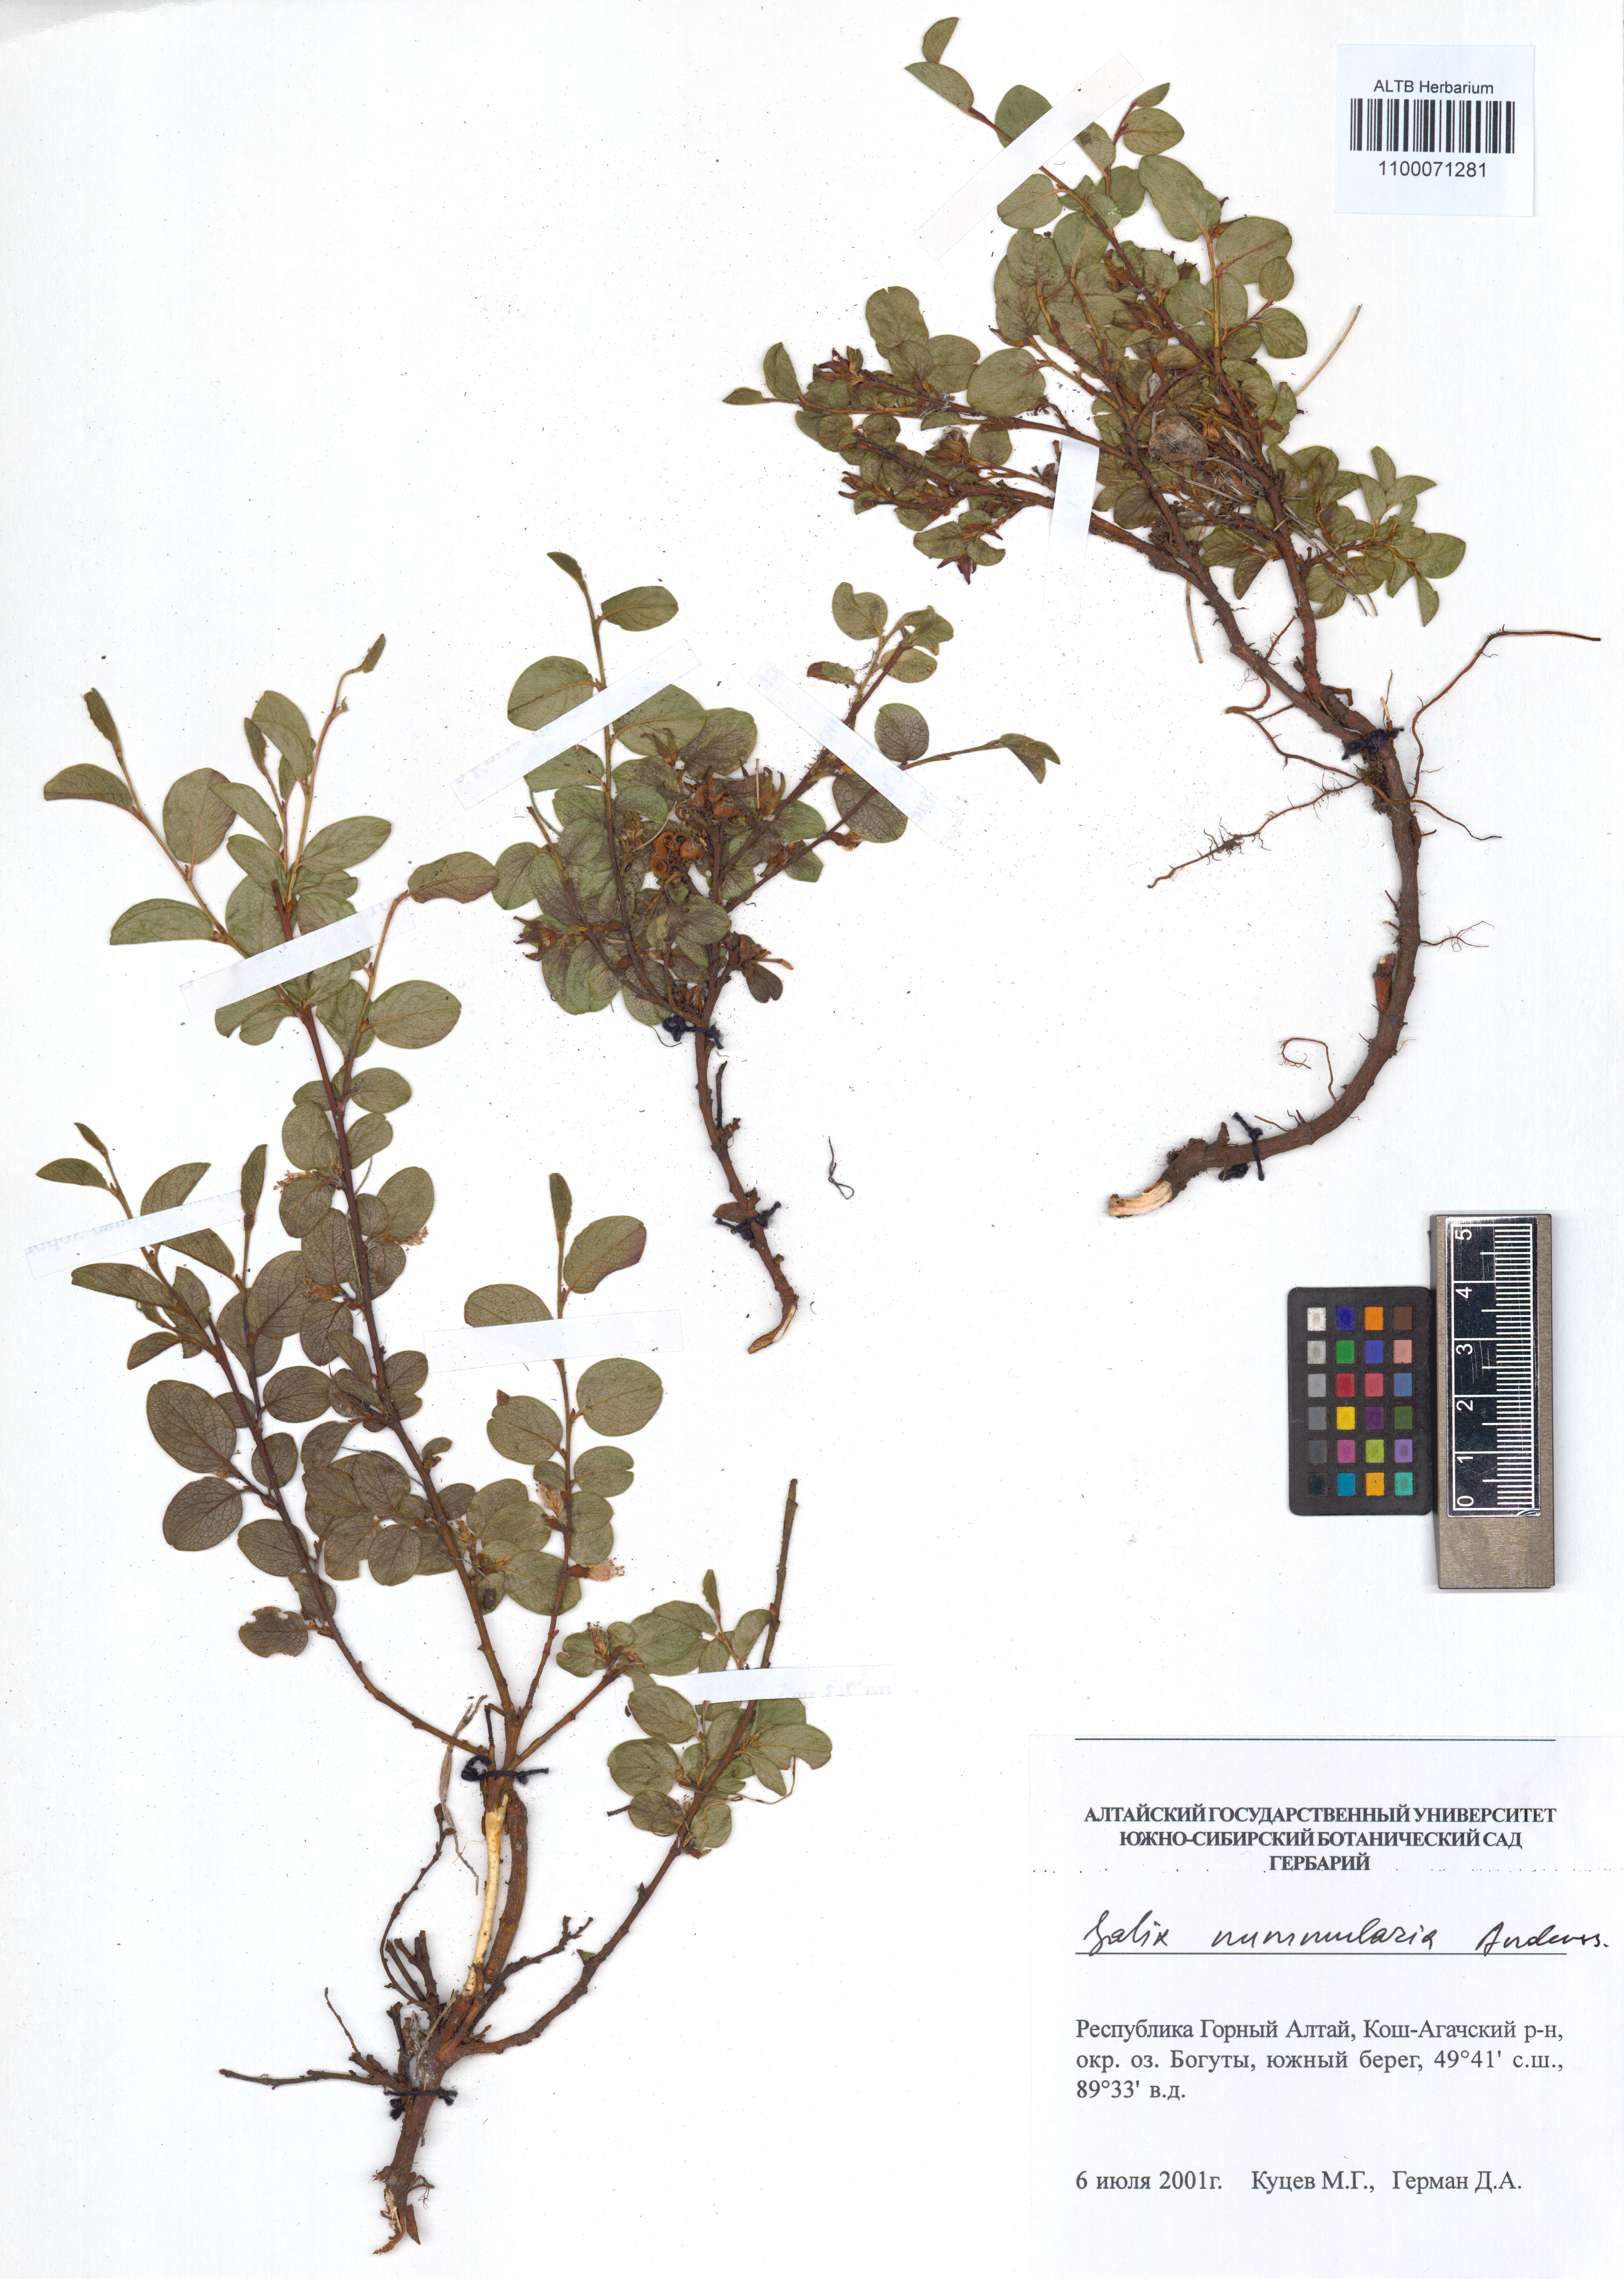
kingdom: Plantae
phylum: Tracheophyta
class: Magnoliopsida
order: Caryophyllales
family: Amaranthaceae
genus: Salicornia
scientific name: Salicornia perennans
